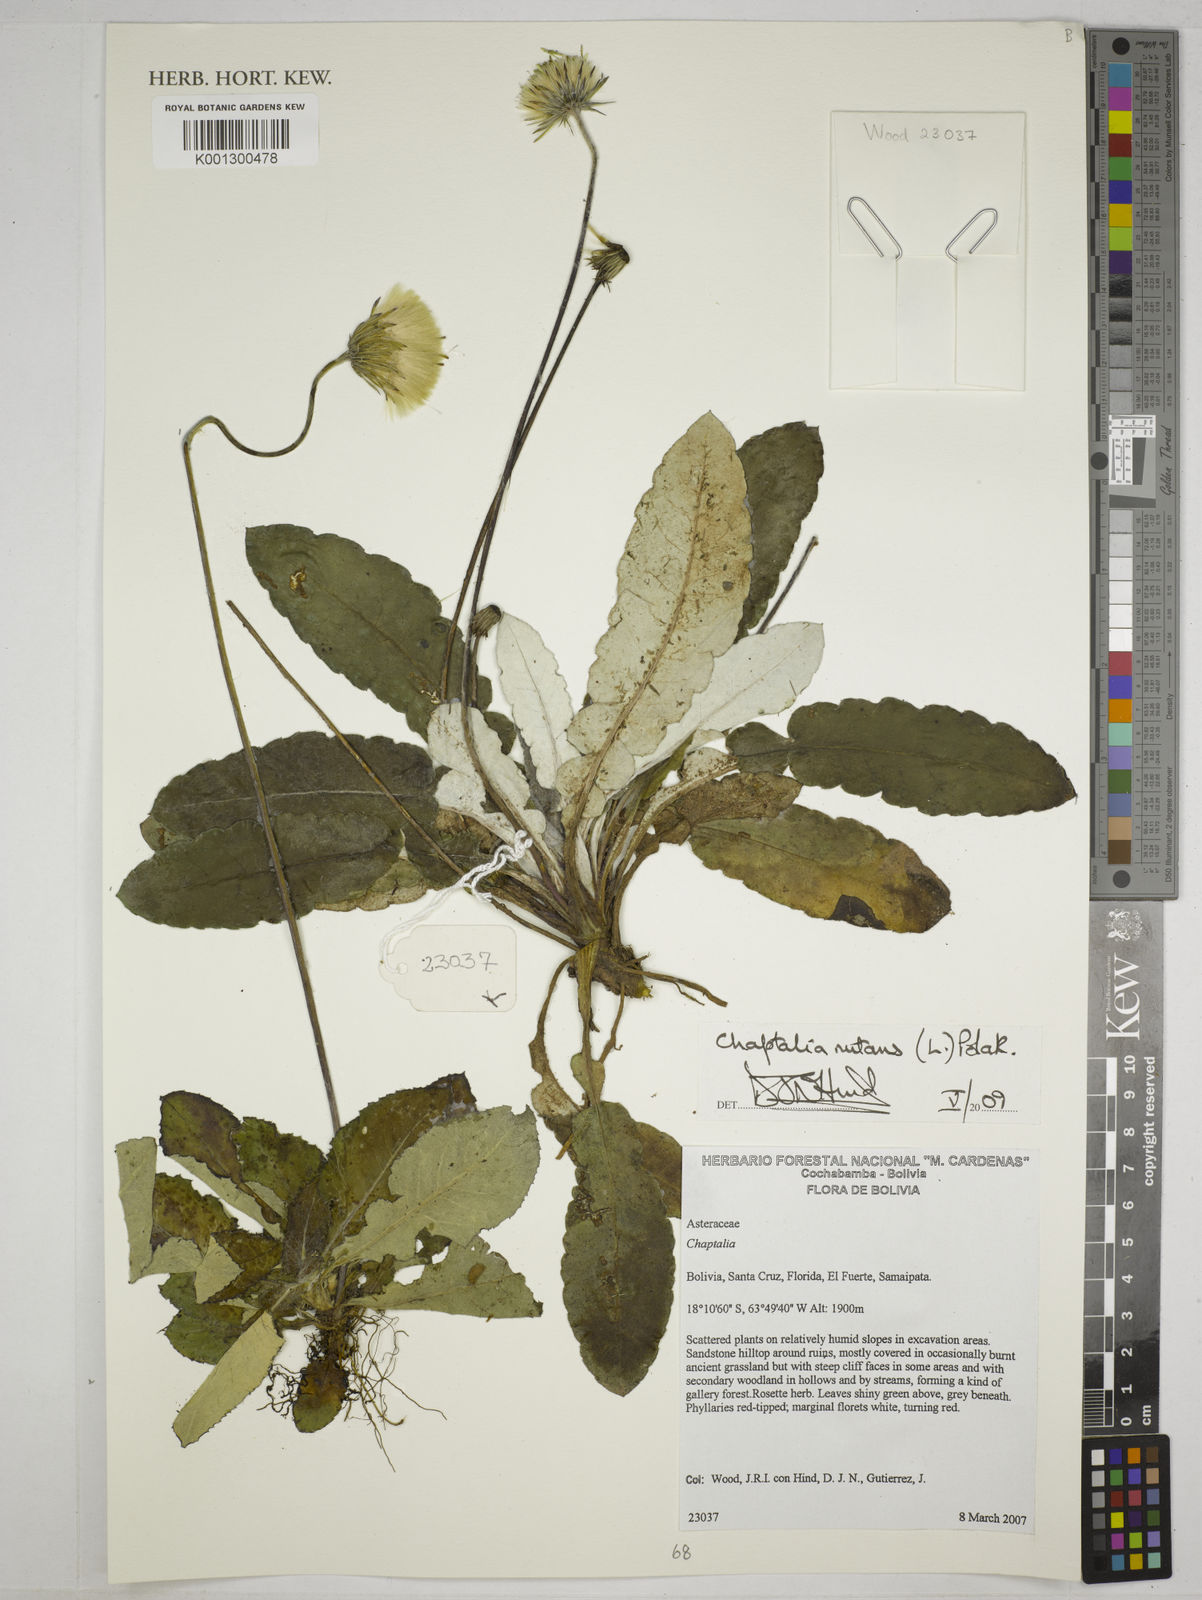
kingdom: Plantae
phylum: Tracheophyta
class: Magnoliopsida
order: Asterales
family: Asteraceae
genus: Chaptalia
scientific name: Chaptalia nutans
